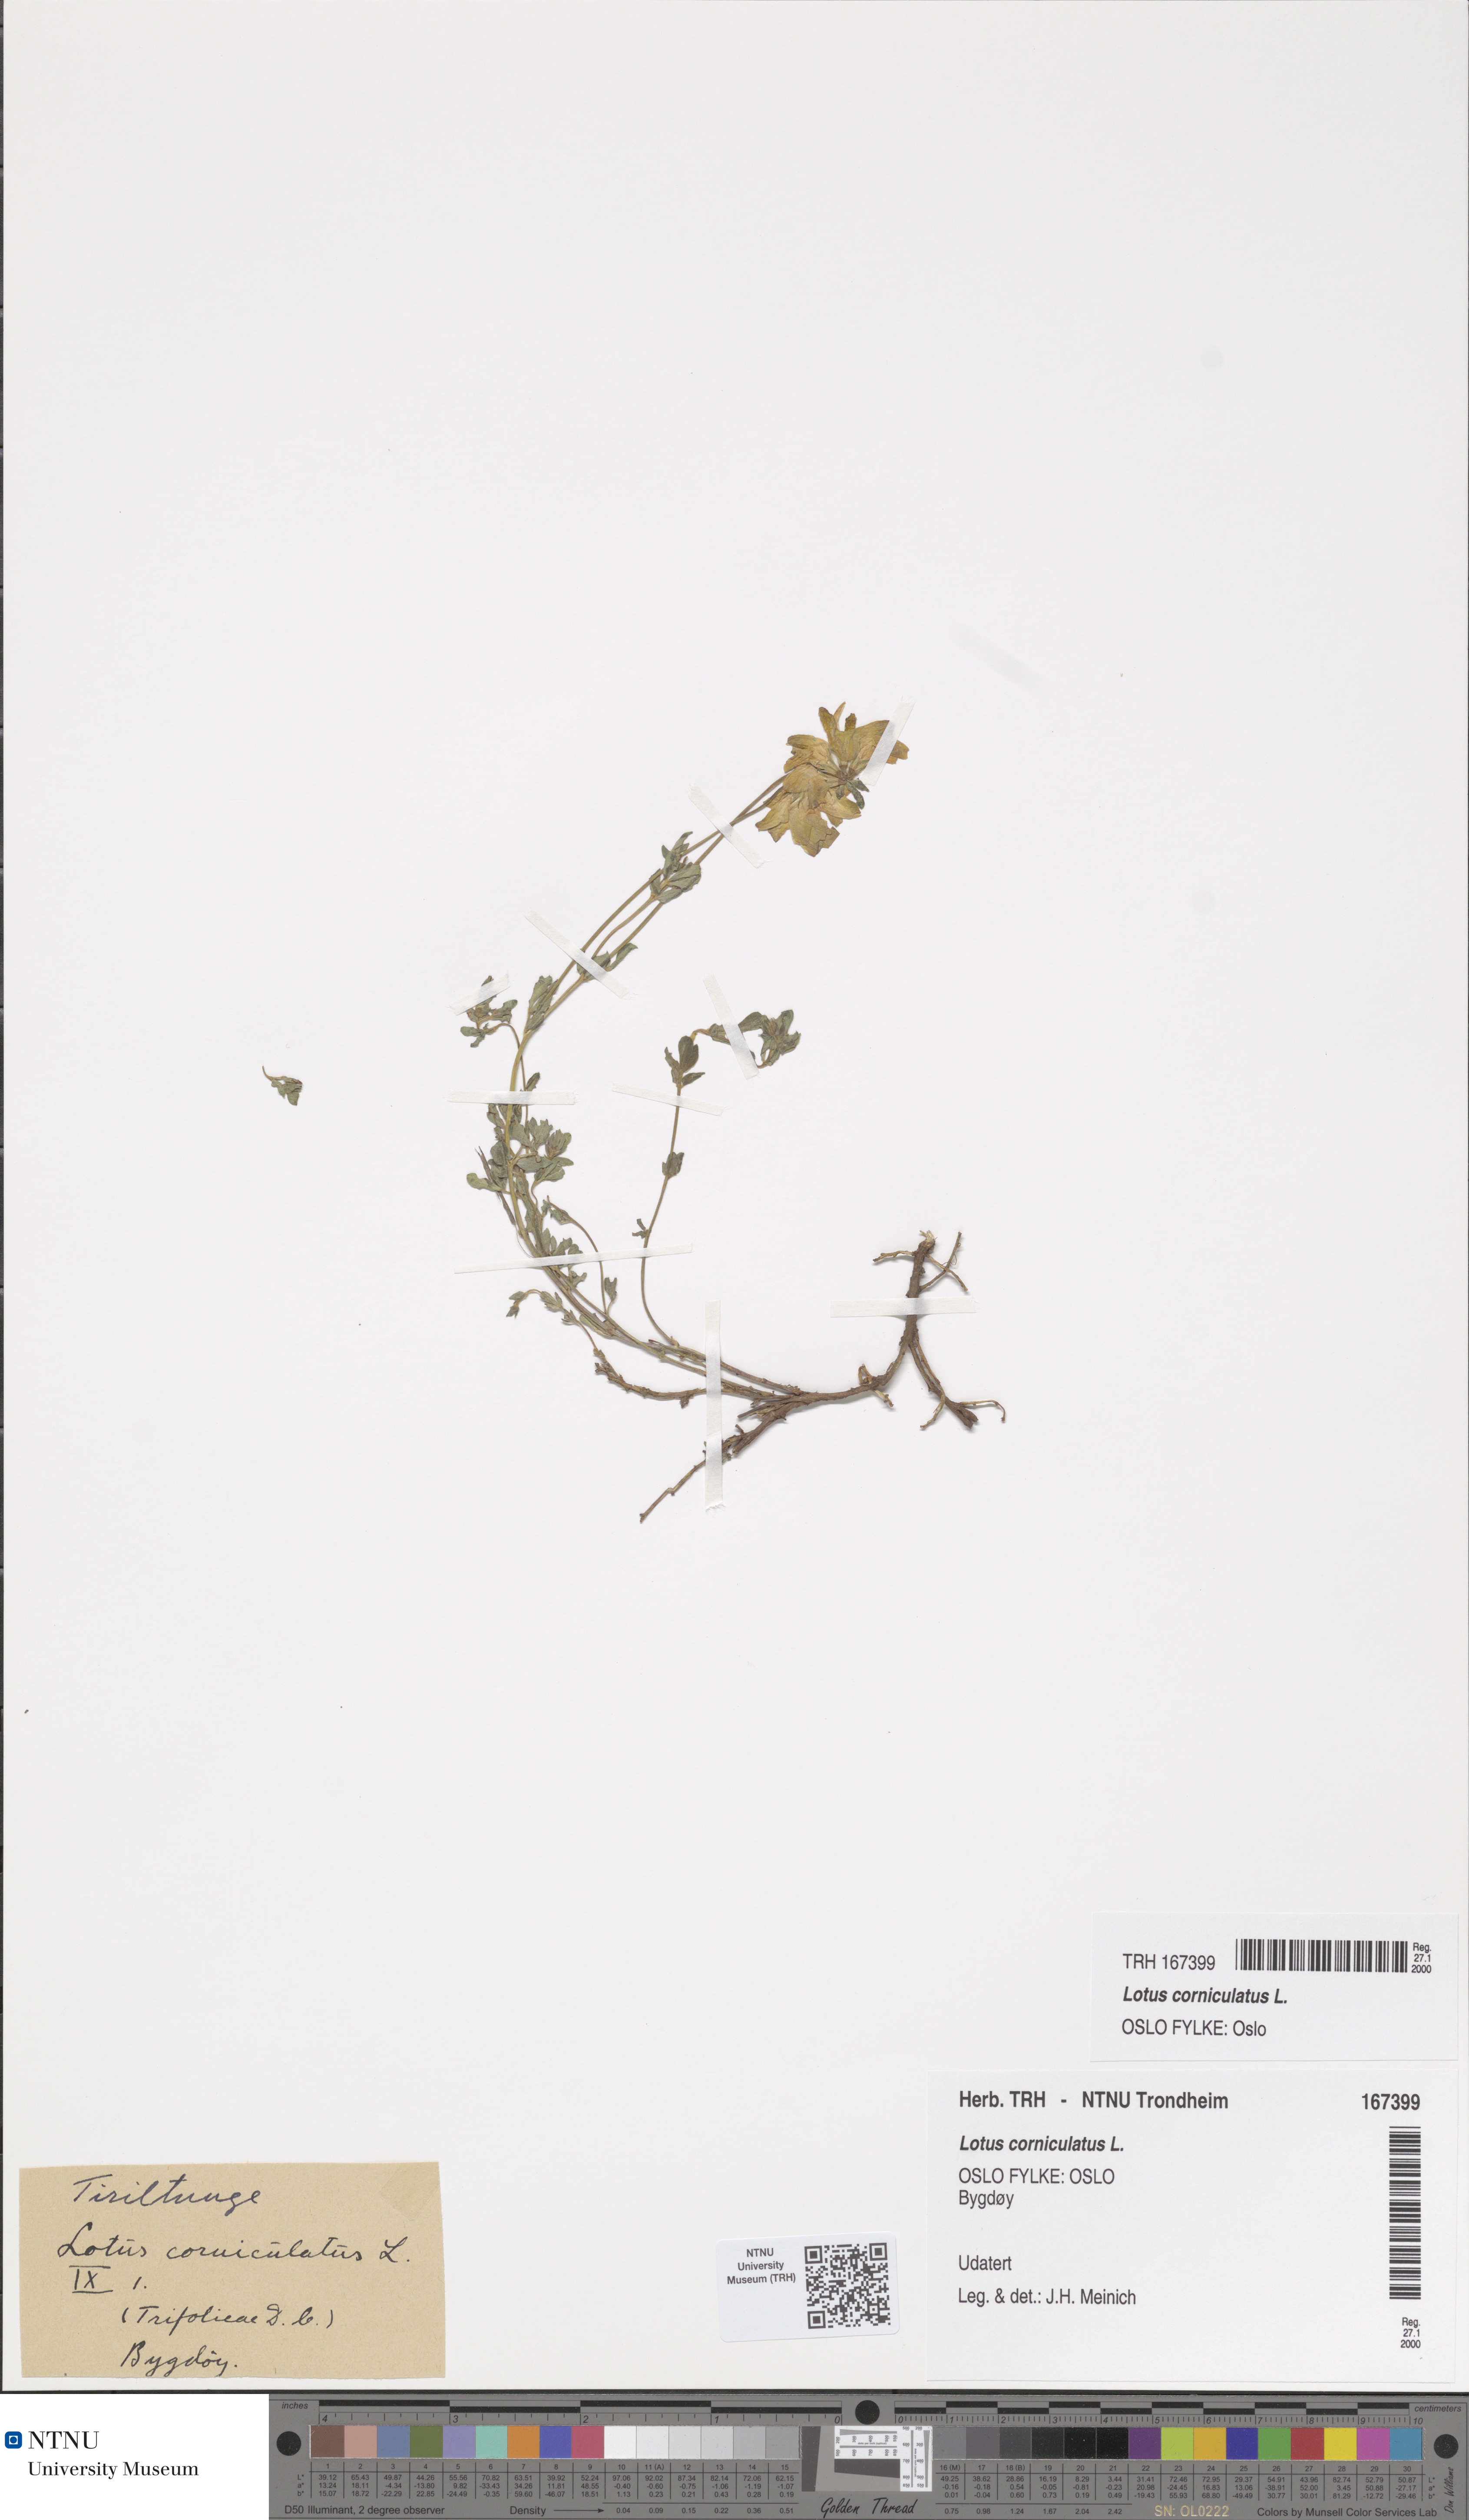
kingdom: Plantae
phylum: Tracheophyta
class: Magnoliopsida
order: Fabales
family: Fabaceae
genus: Lotus
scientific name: Lotus corniculatus
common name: Common bird's-foot-trefoil
